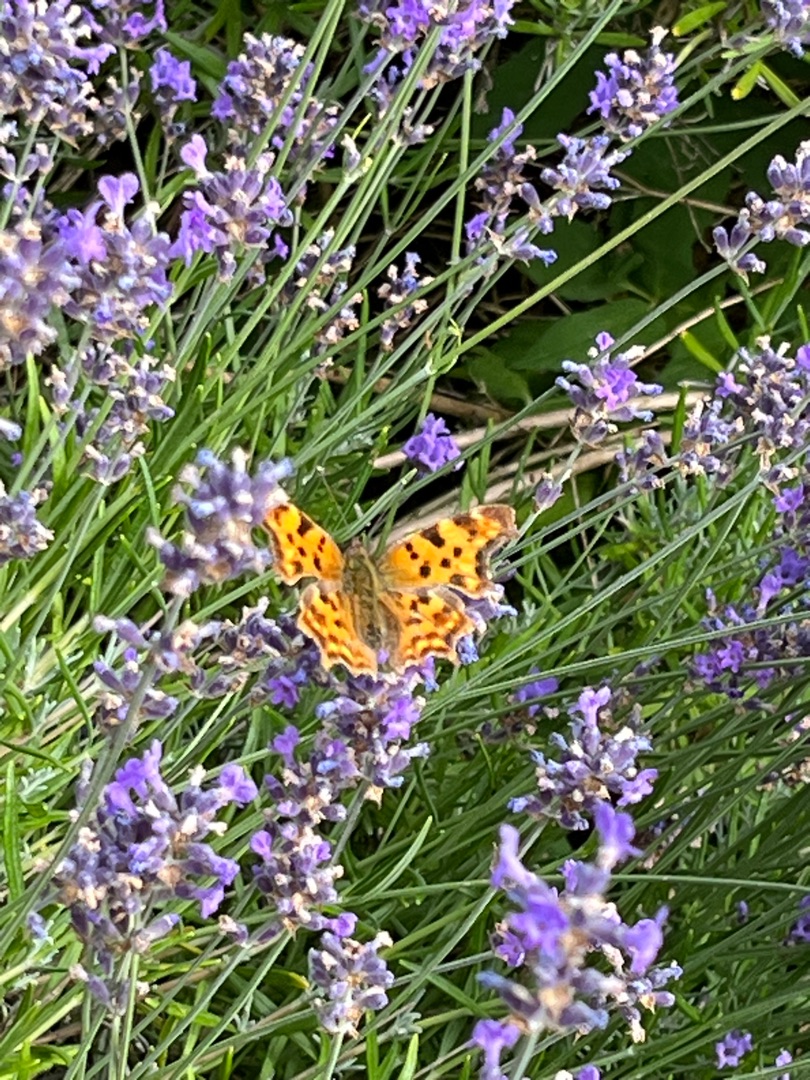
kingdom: Animalia
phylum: Arthropoda
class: Insecta
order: Lepidoptera
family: Nymphalidae
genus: Polygonia
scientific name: Polygonia c-album
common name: Det hvide C
